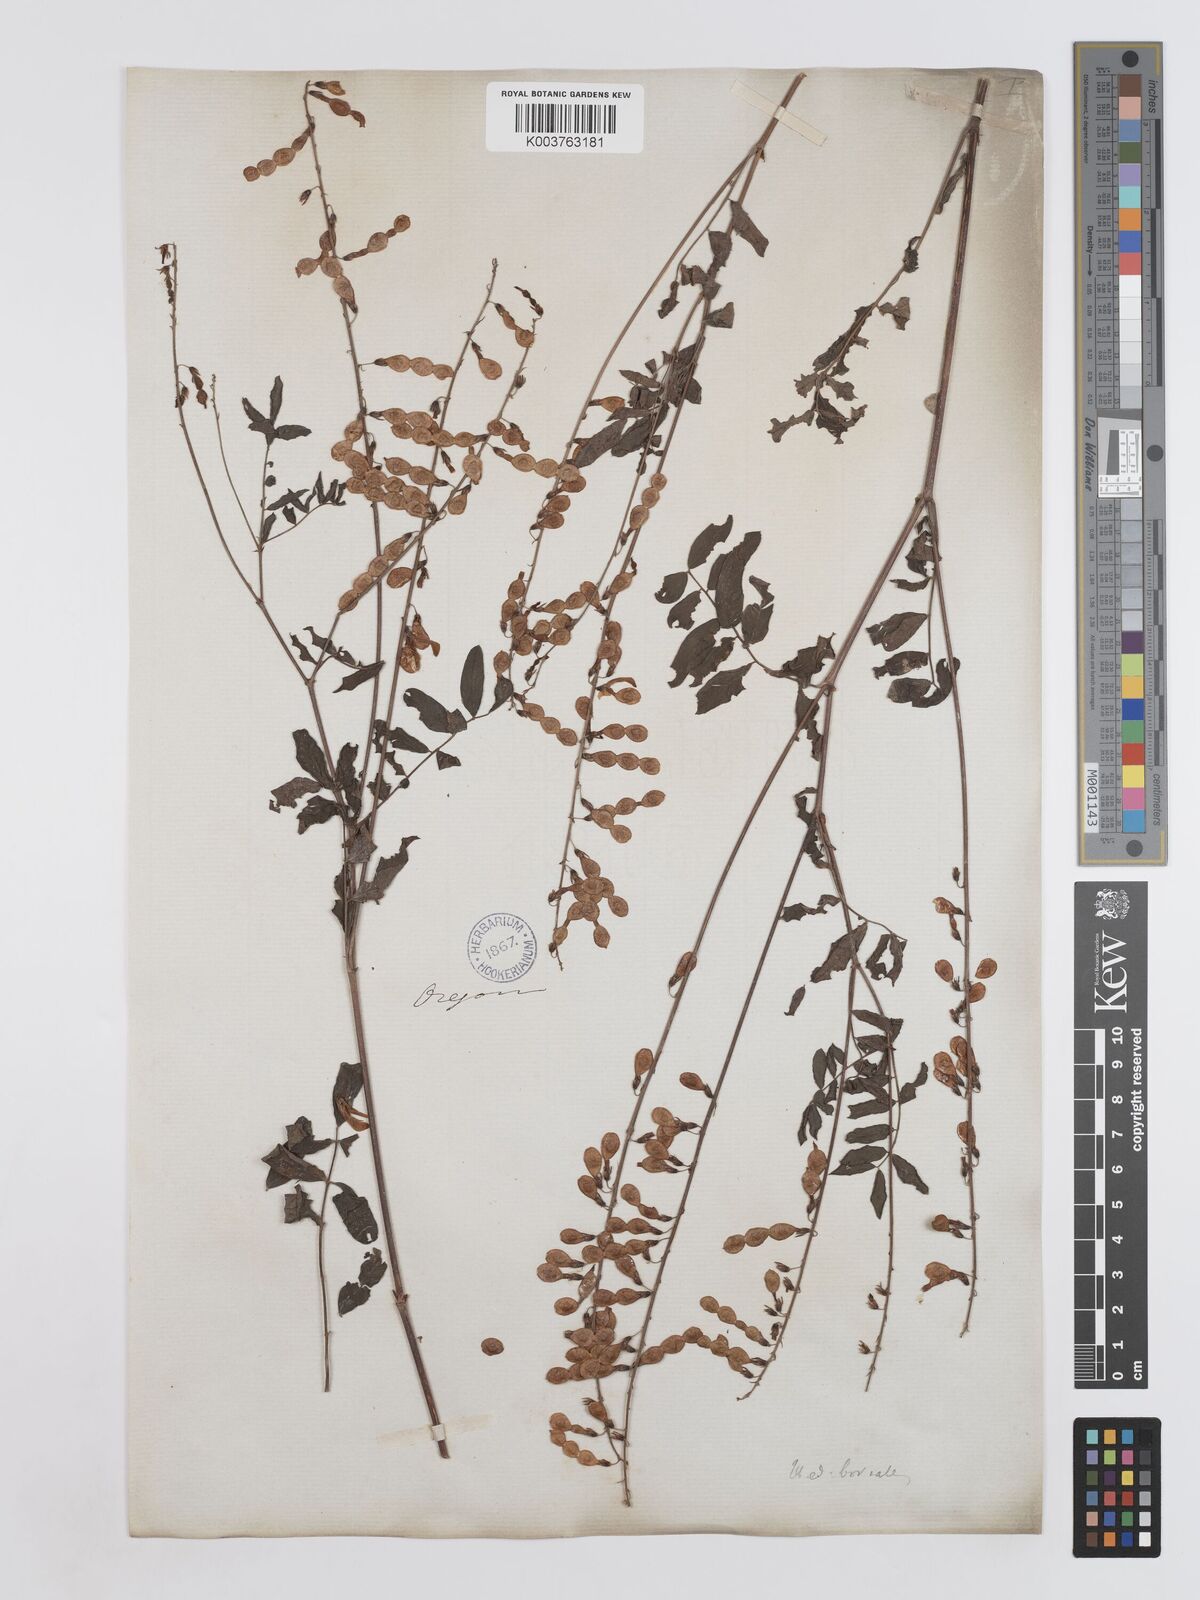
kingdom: Plantae
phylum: Tracheophyta
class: Magnoliopsida
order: Fabales
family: Fabaceae
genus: Hedysarum
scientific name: Hedysarum boreale
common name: Northern sweet-vetch
